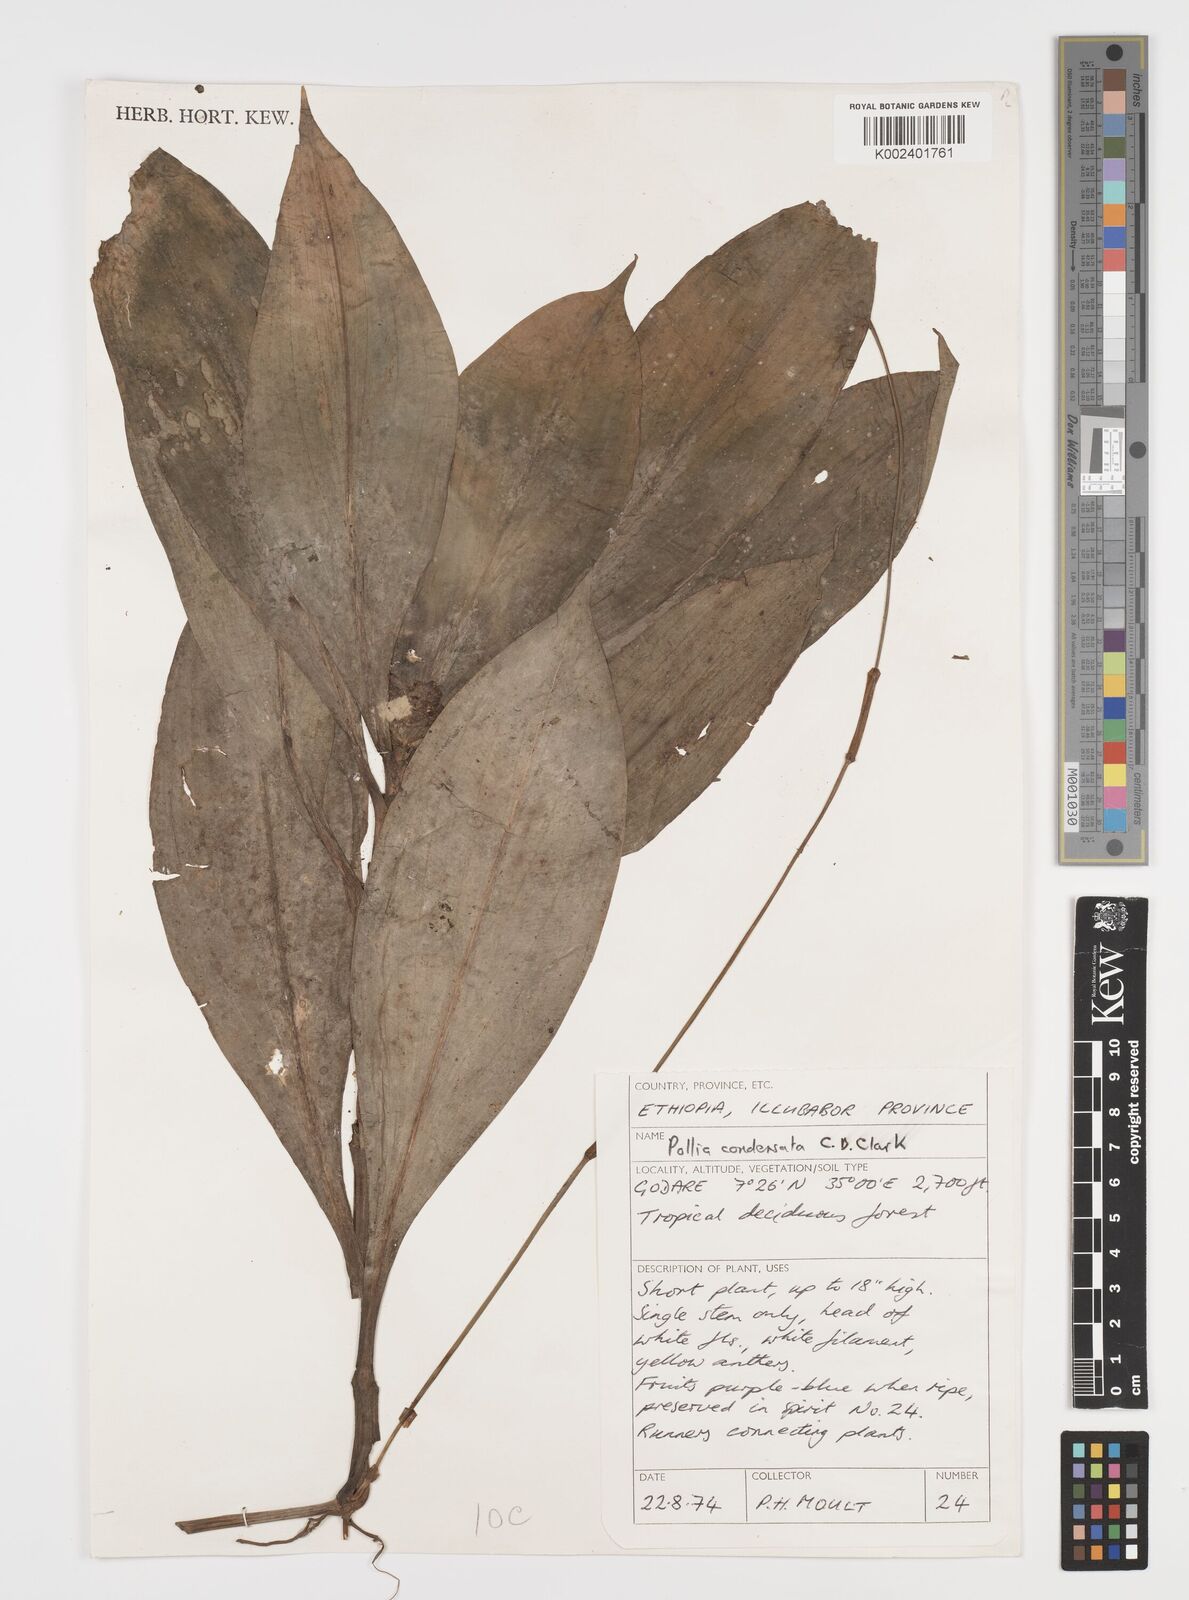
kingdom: Plantae
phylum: Tracheophyta
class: Liliopsida
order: Commelinales
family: Commelinaceae
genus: Pollia
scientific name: Pollia condensata
